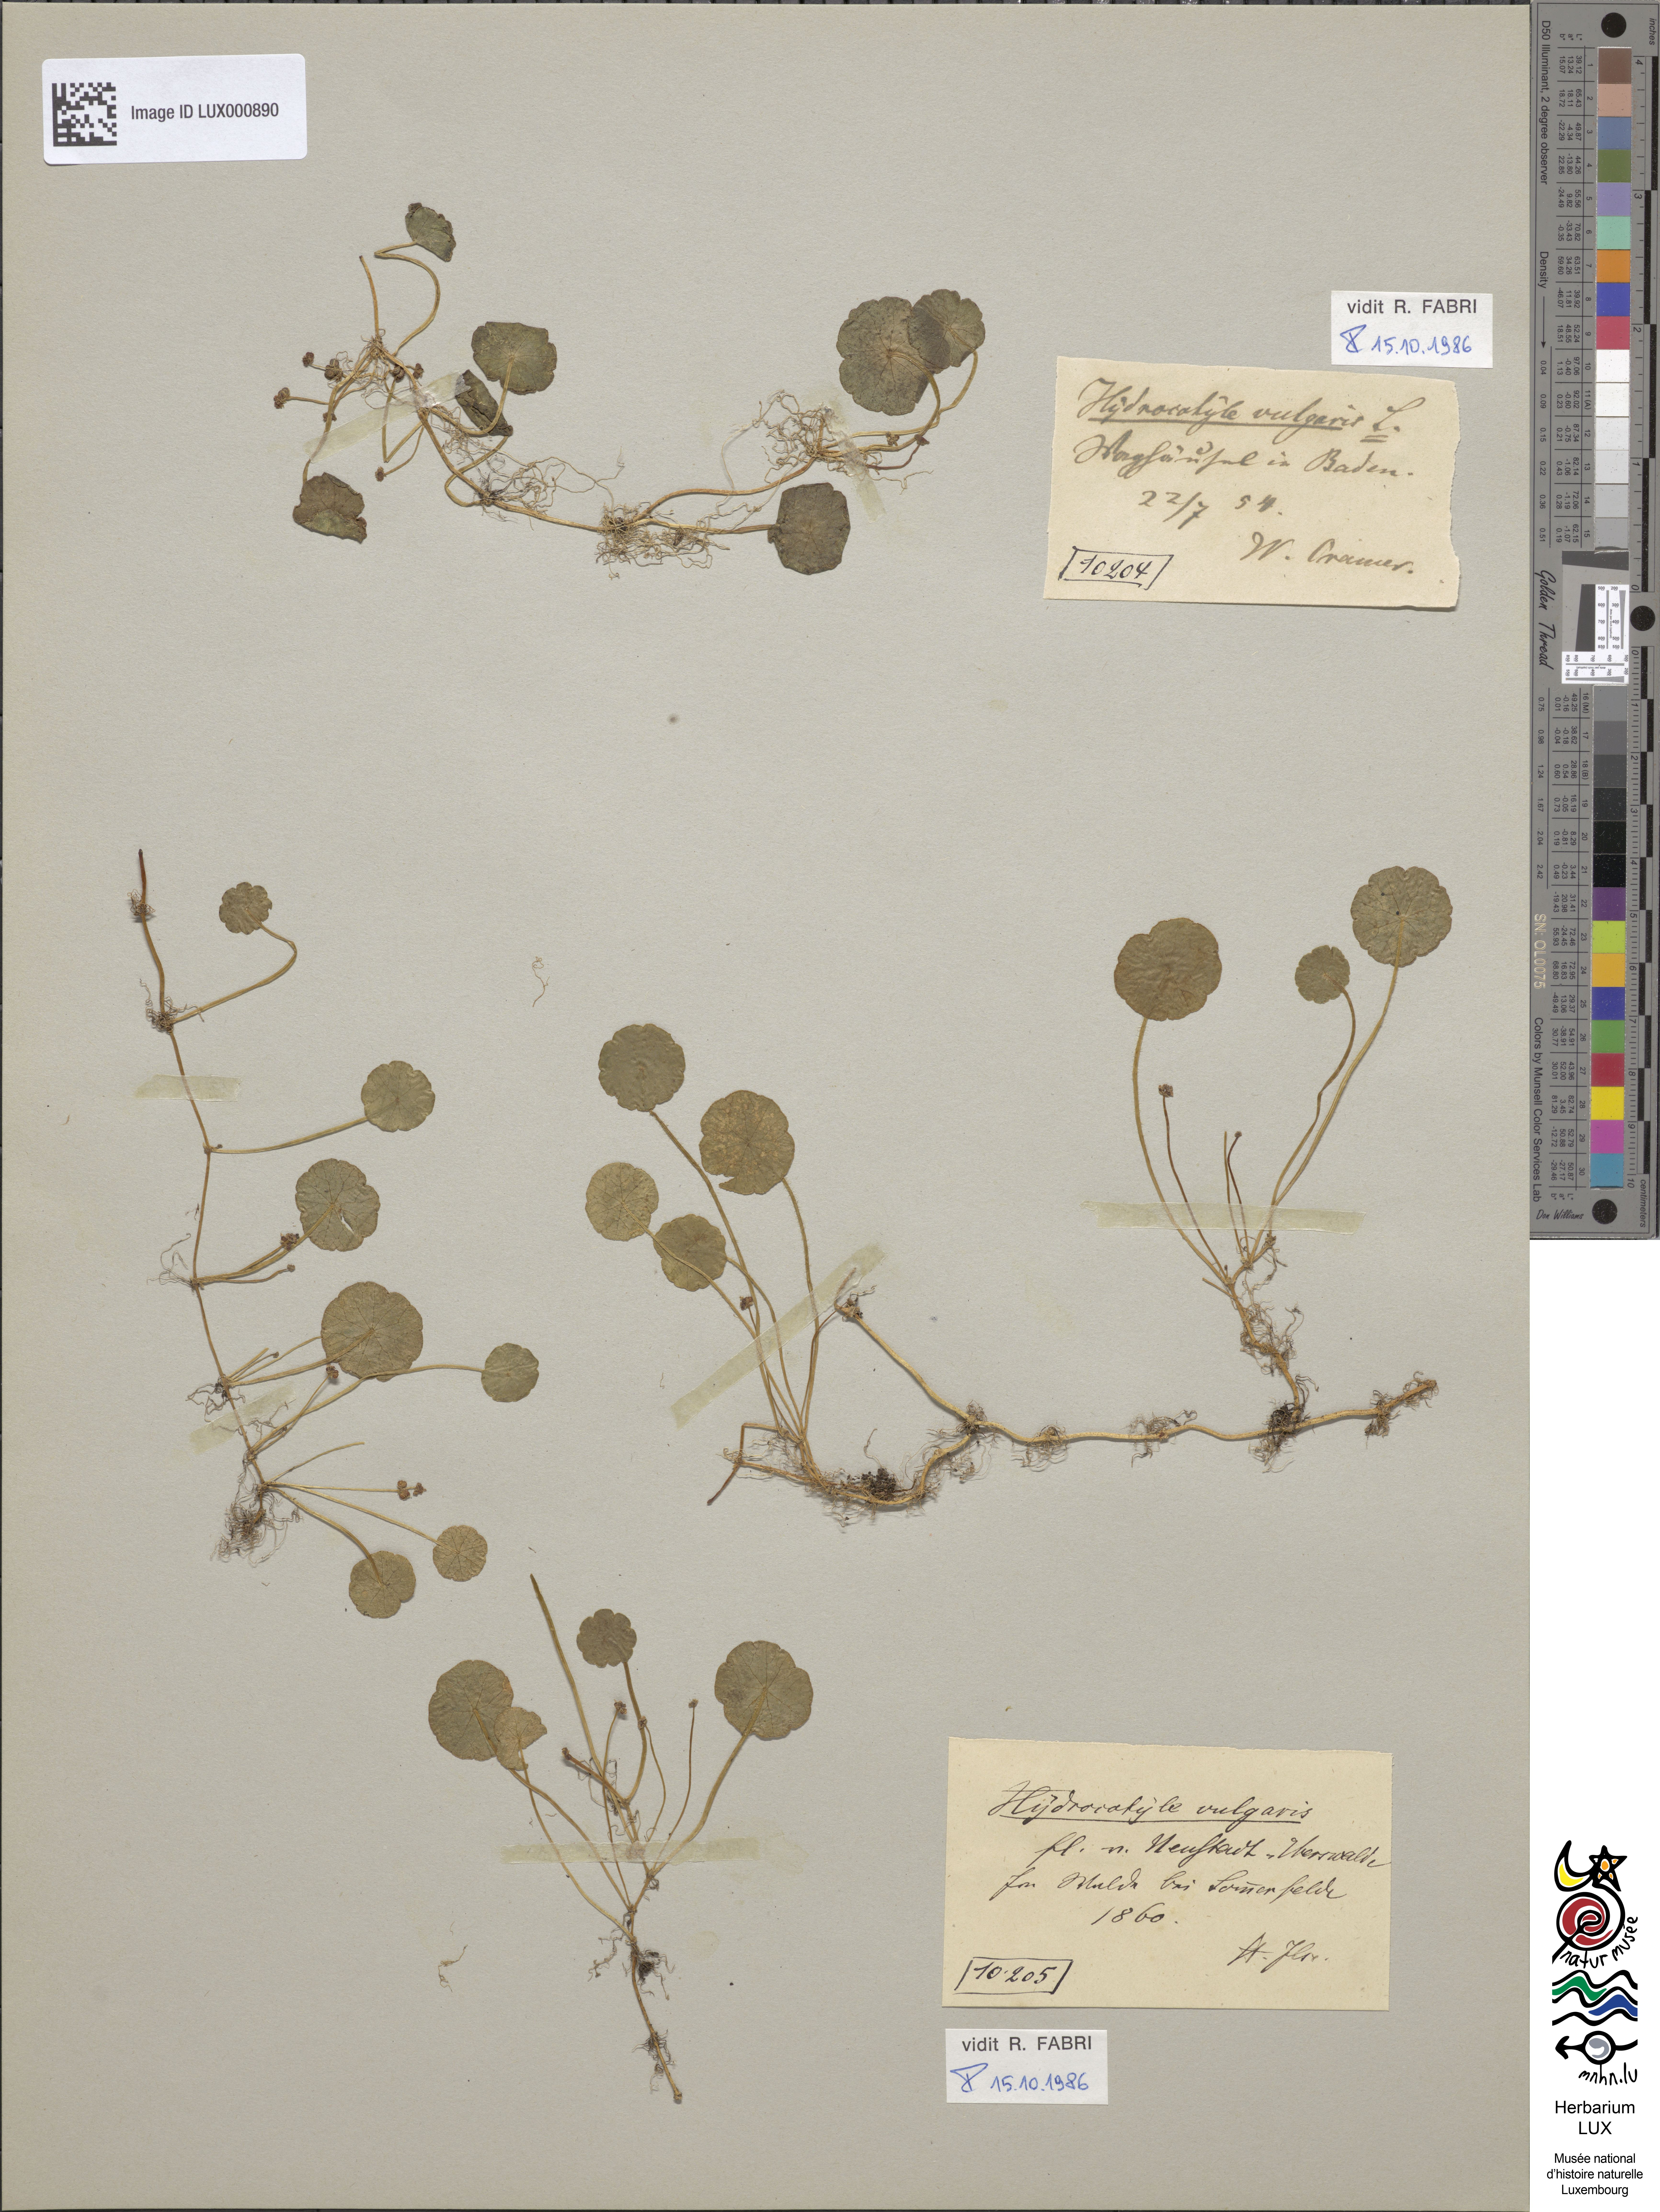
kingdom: Plantae
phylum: Tracheophyta
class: Magnoliopsida
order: Apiales
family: Araliaceae
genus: Hydrocotyle
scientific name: Hydrocotyle vulgaris
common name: Marsh pennywort
